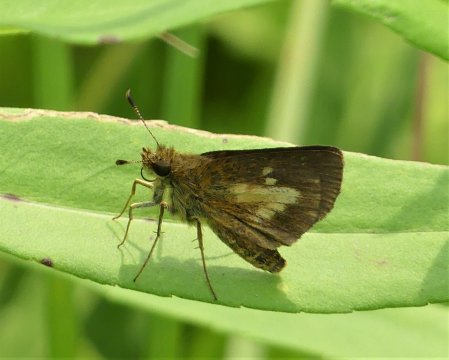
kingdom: Animalia
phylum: Arthropoda
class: Insecta
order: Lepidoptera
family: Hesperiidae
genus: Poanes
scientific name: Poanes massasoit
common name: Mulberry Wing
